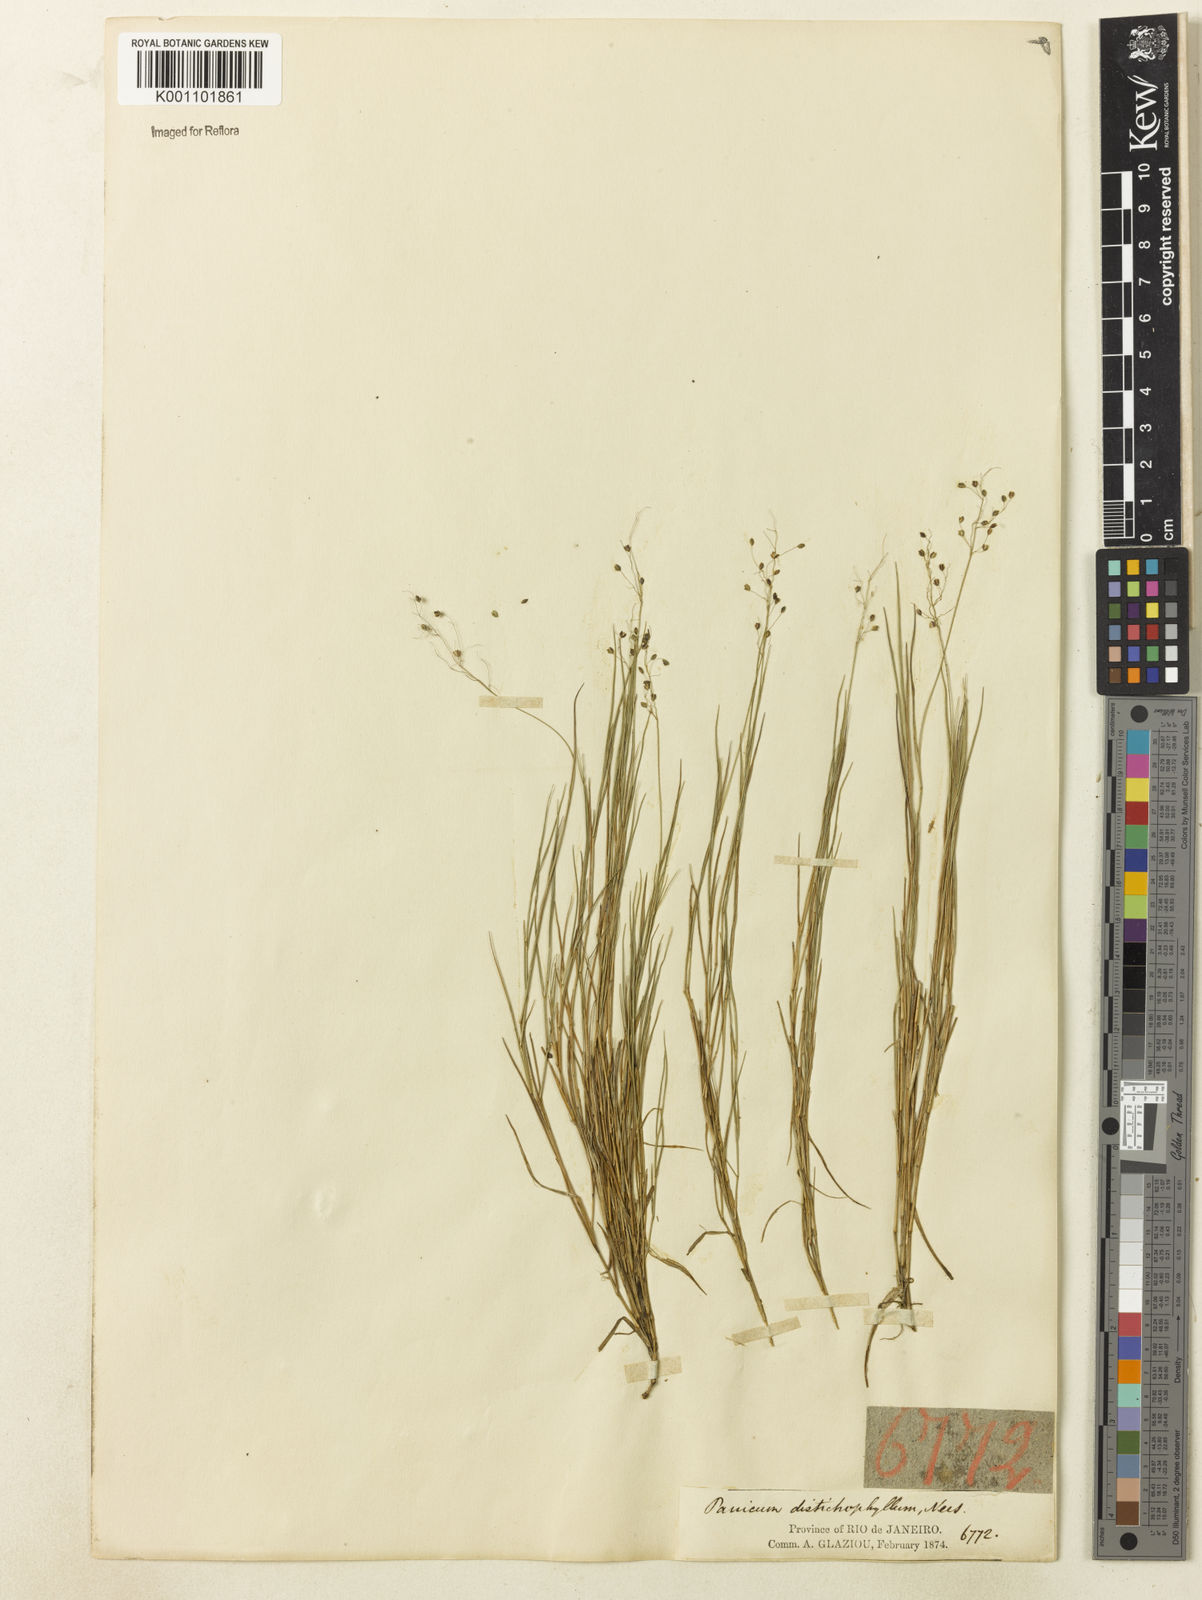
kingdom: Plantae
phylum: Tracheophyta
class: Liliopsida
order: Poales
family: Poaceae
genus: Trichanthecium
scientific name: Trichanthecium distichophyllum
